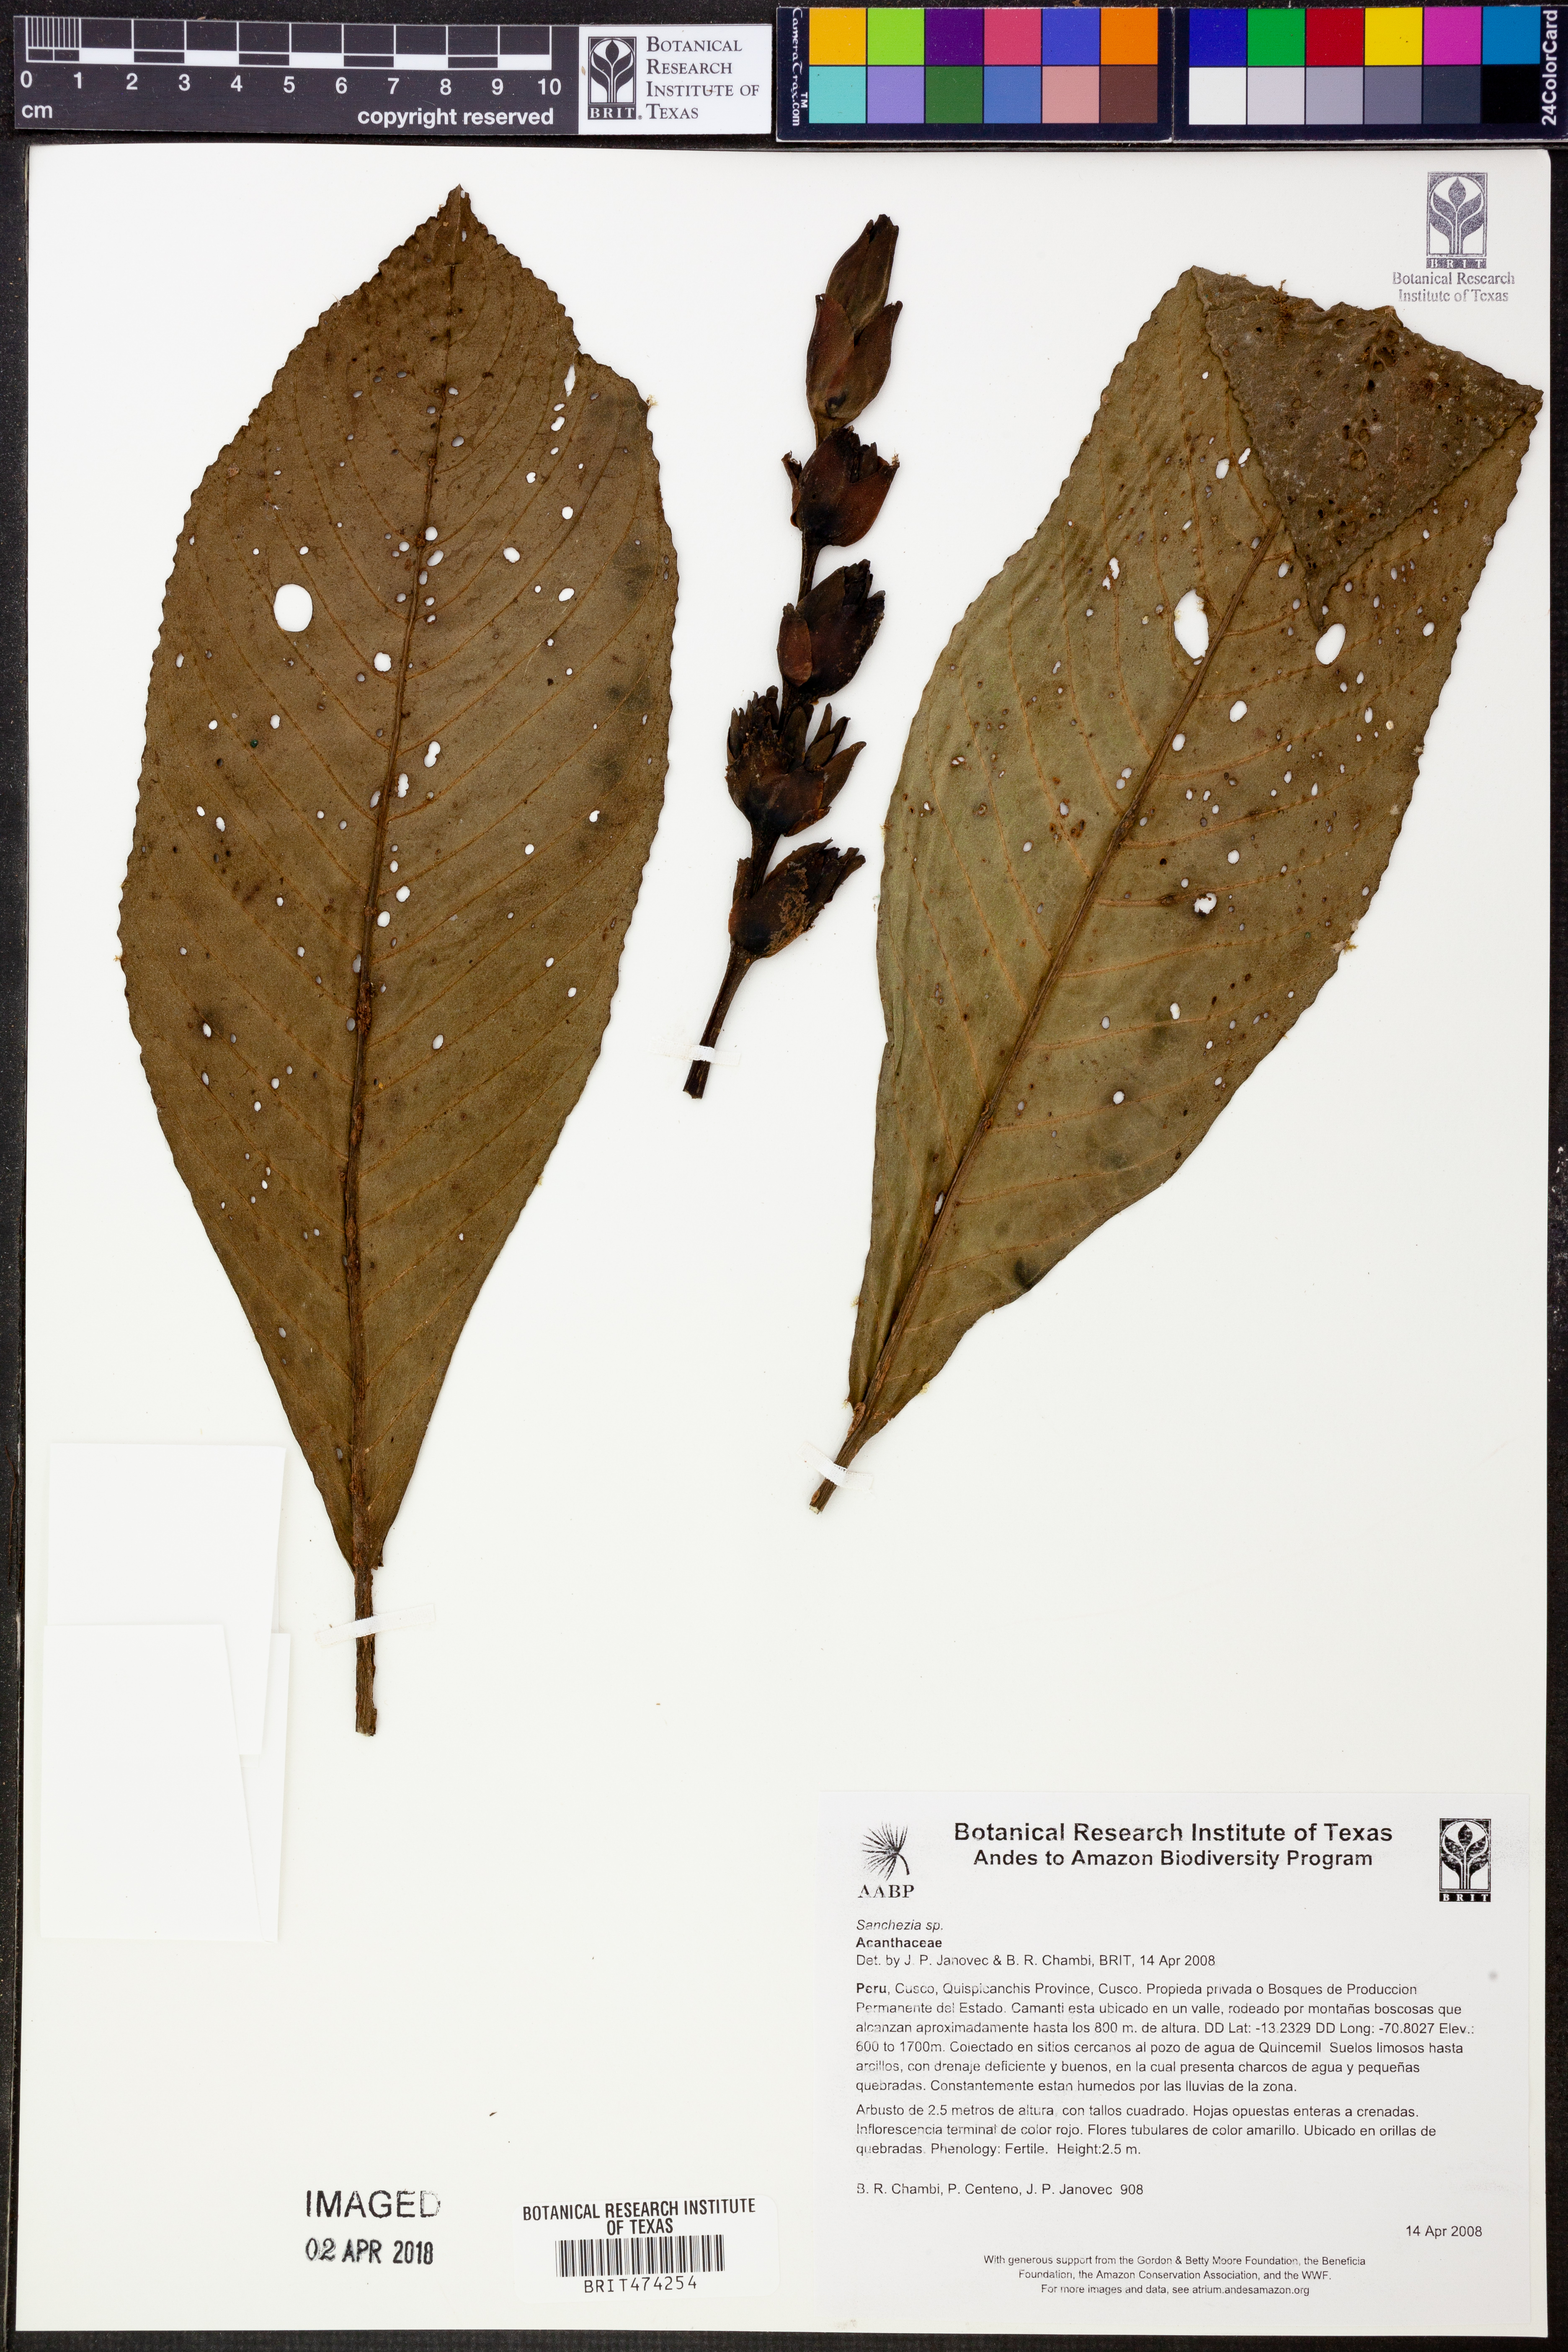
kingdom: Plantae
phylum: Tracheophyta
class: Magnoliopsida
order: Lamiales
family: Acanthaceae
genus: Sanchezia
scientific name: Sanchezia
